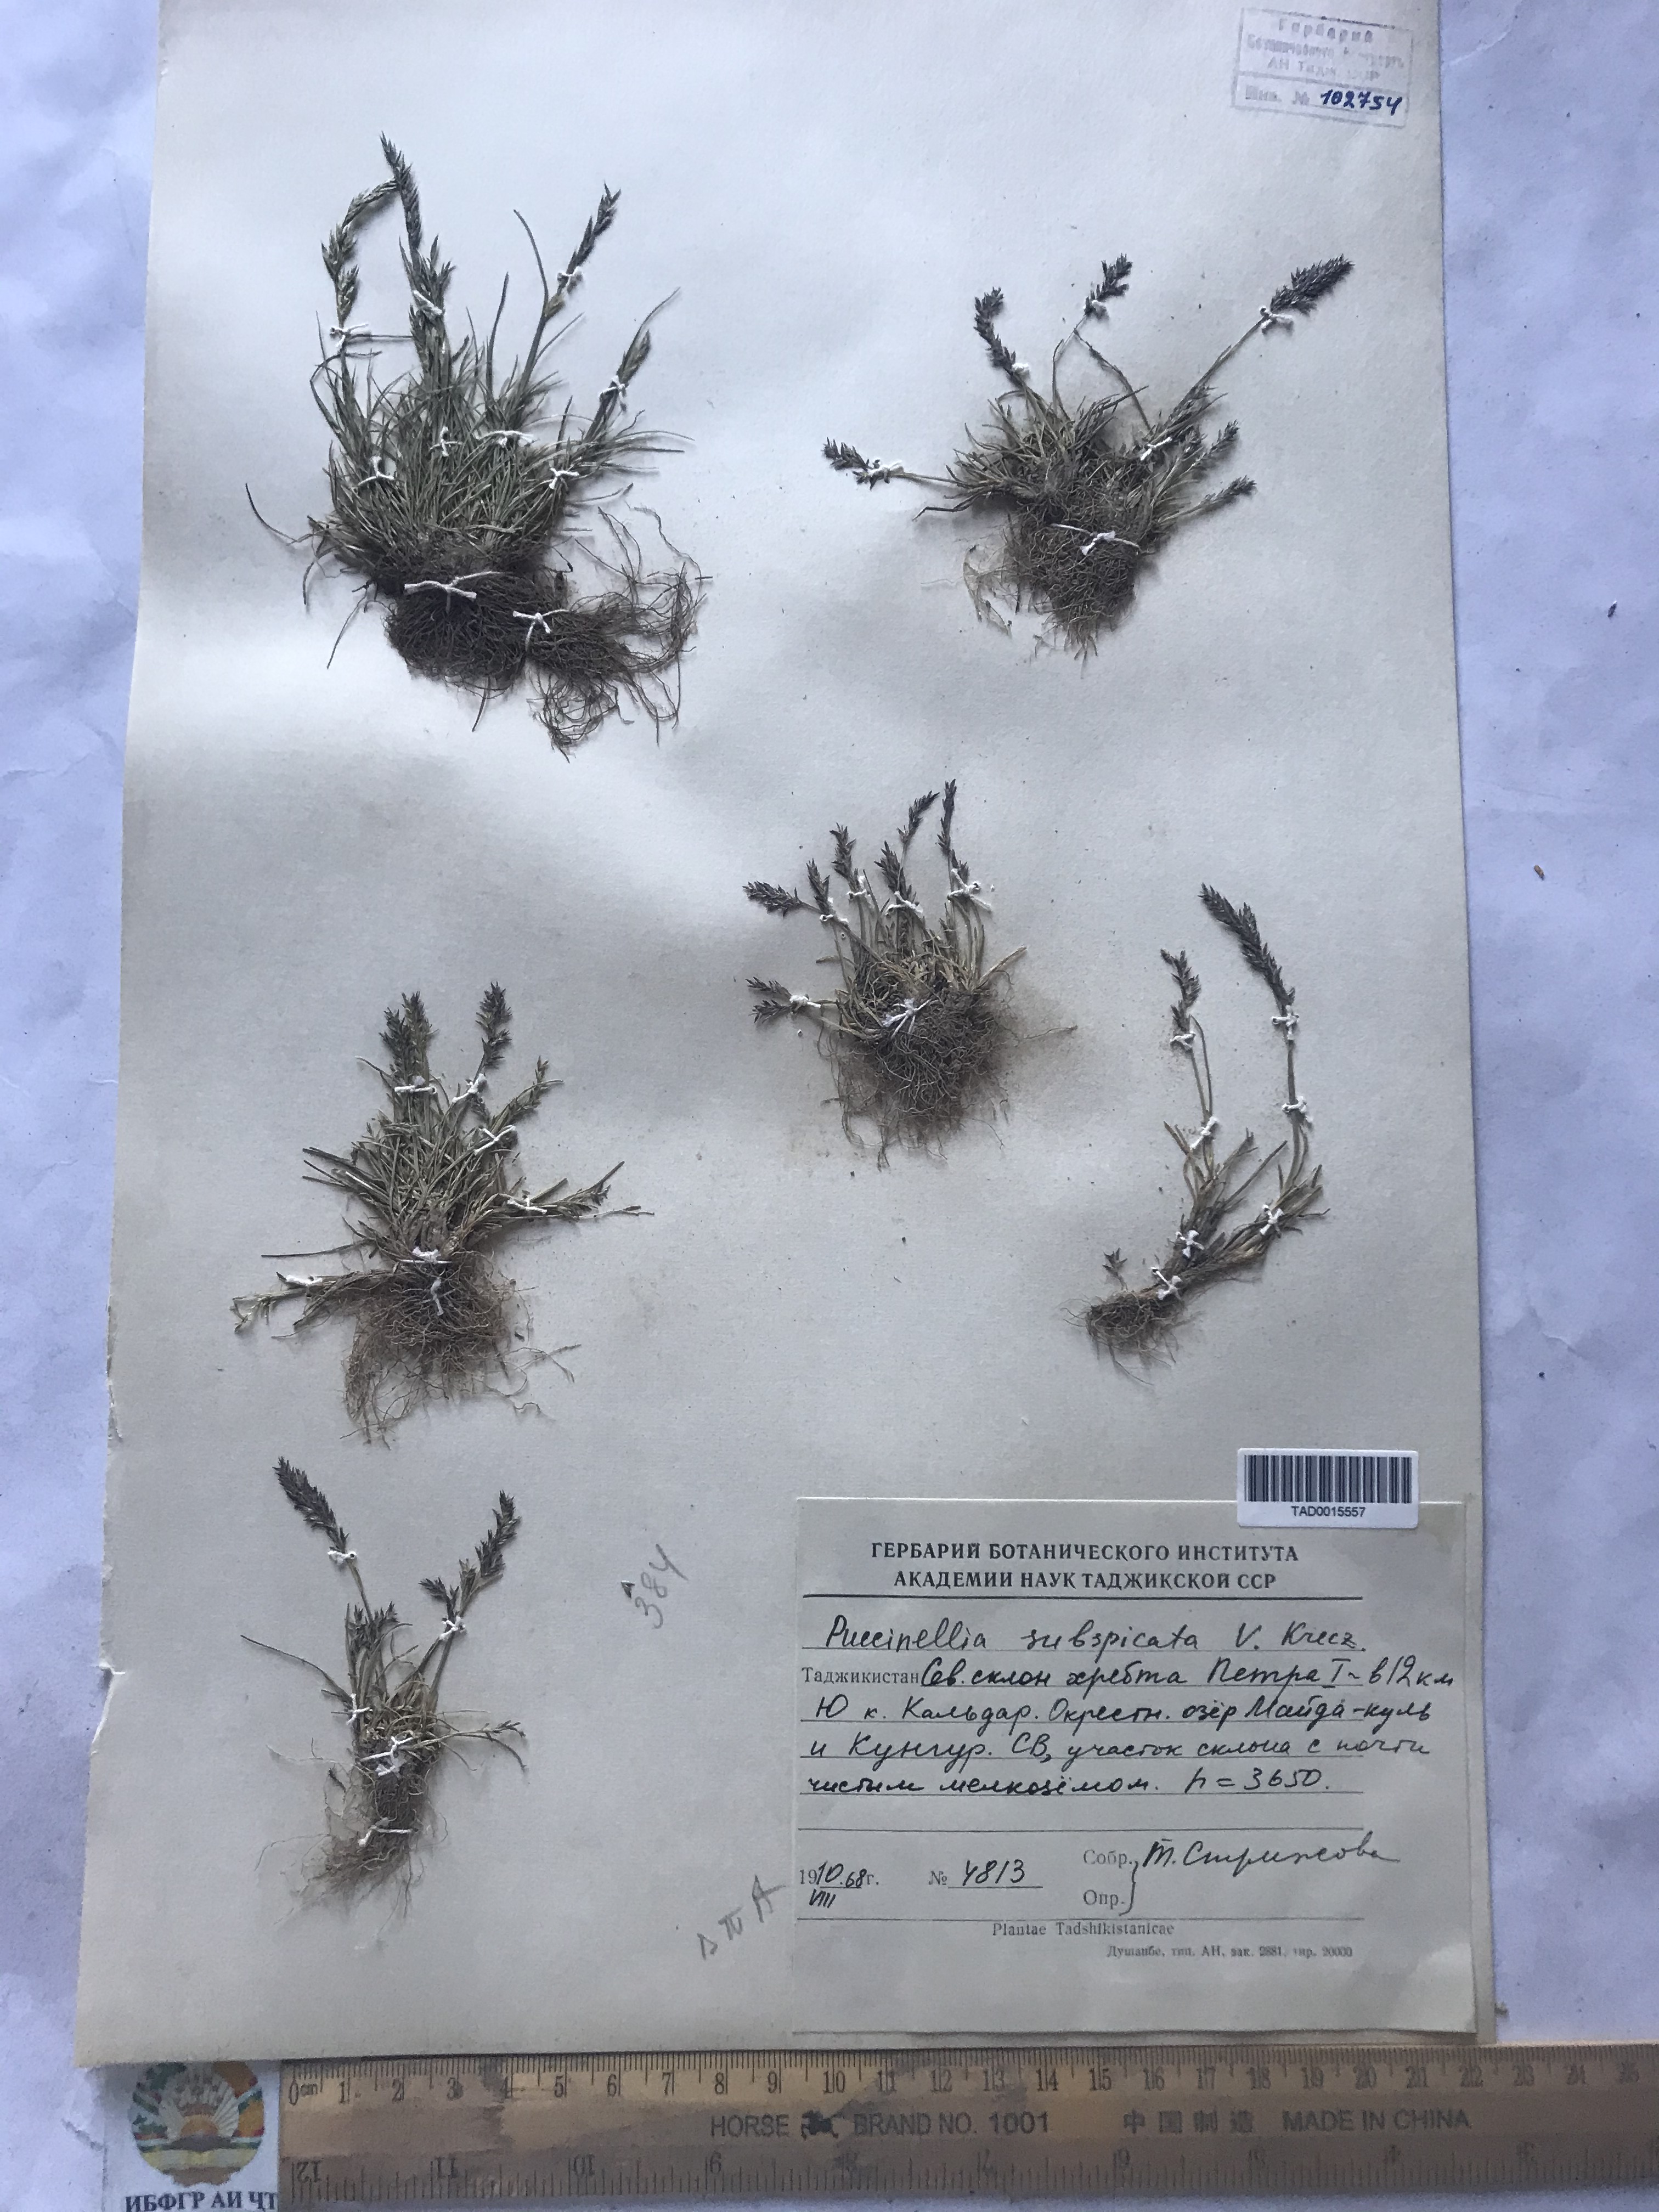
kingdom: Plantae
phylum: Tracheophyta
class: Liliopsida
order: Poales
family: Poaceae
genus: Puccinellia
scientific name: Puccinellia subspicata
